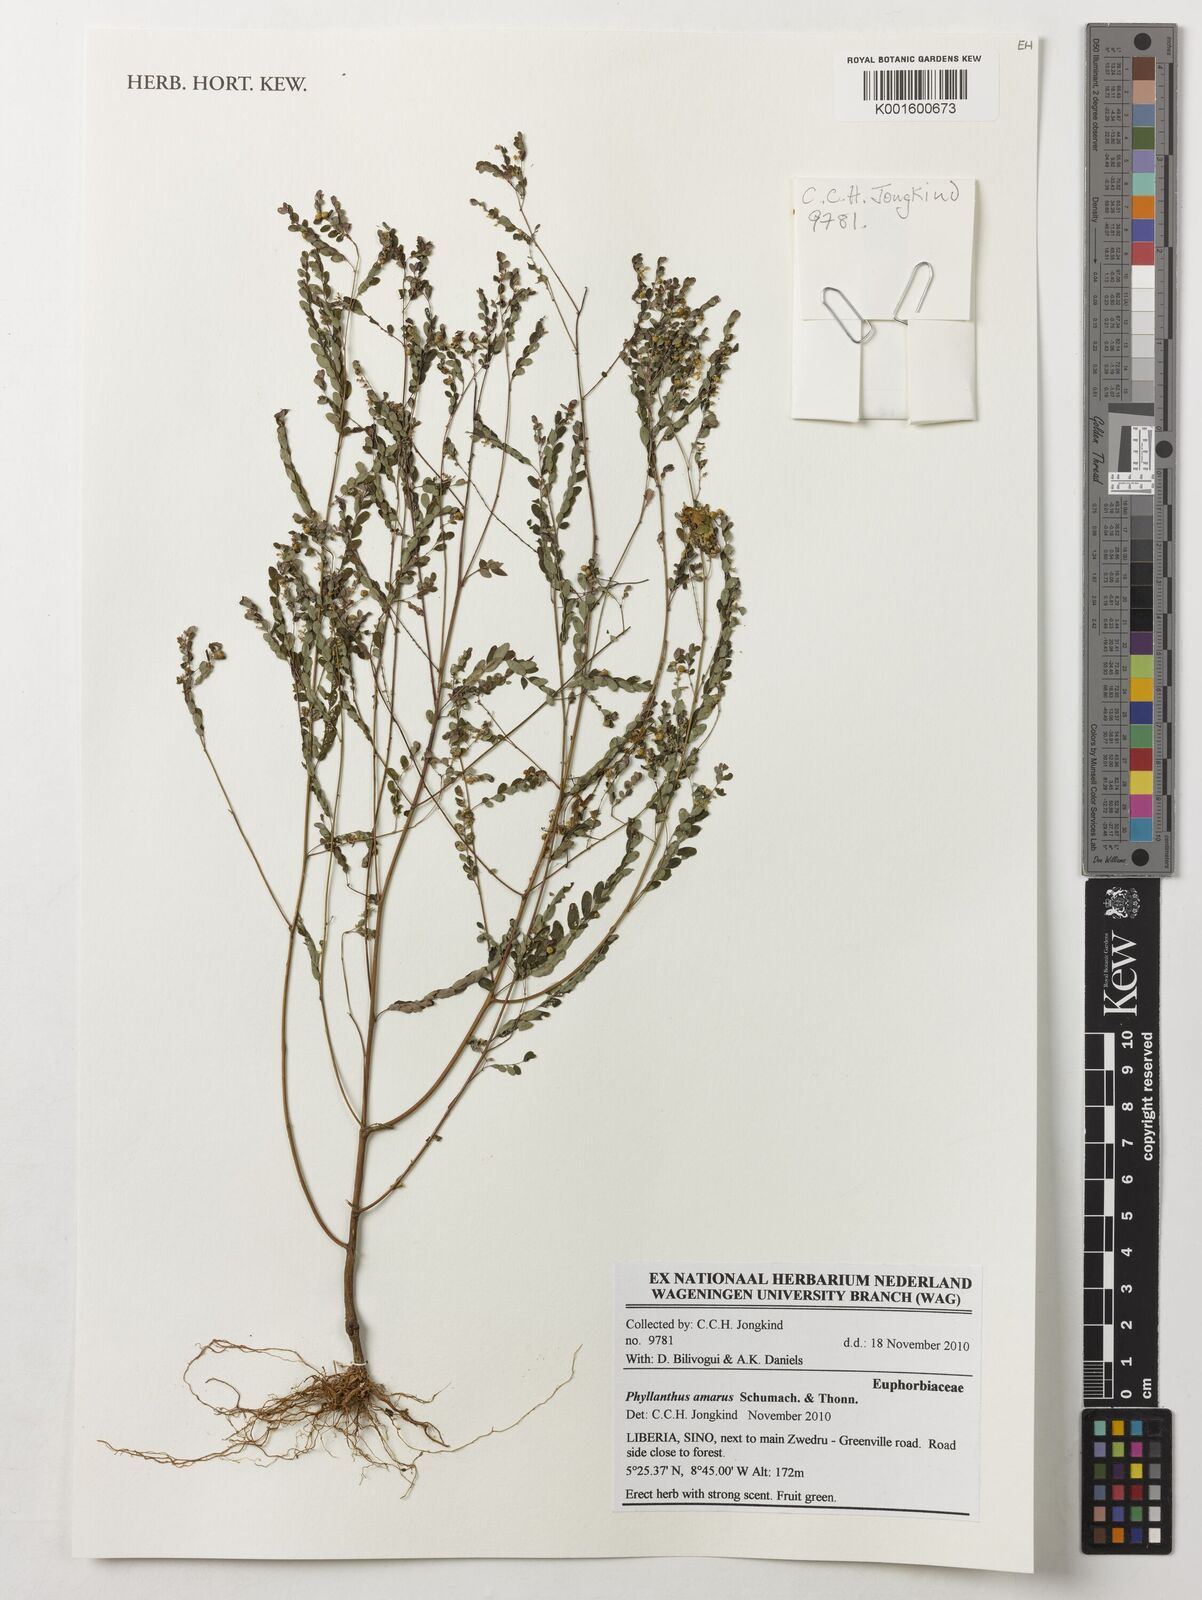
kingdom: Plantae
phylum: Tracheophyta
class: Magnoliopsida
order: Malpighiales
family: Phyllanthaceae
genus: Phyllanthus
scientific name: Phyllanthus amarus
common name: Carry me seed
